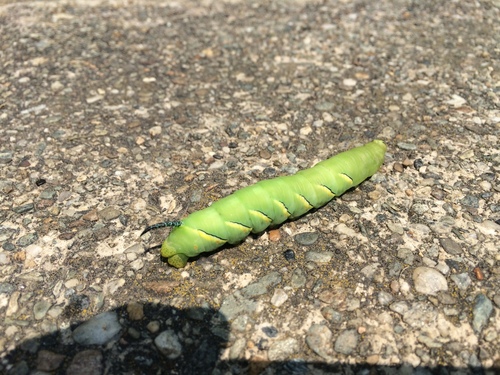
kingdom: Animalia
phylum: Arthropoda
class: Insecta
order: Lepidoptera
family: Sphingidae
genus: Sphinx
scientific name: Sphinx kalmiae
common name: Laurel sphinx
